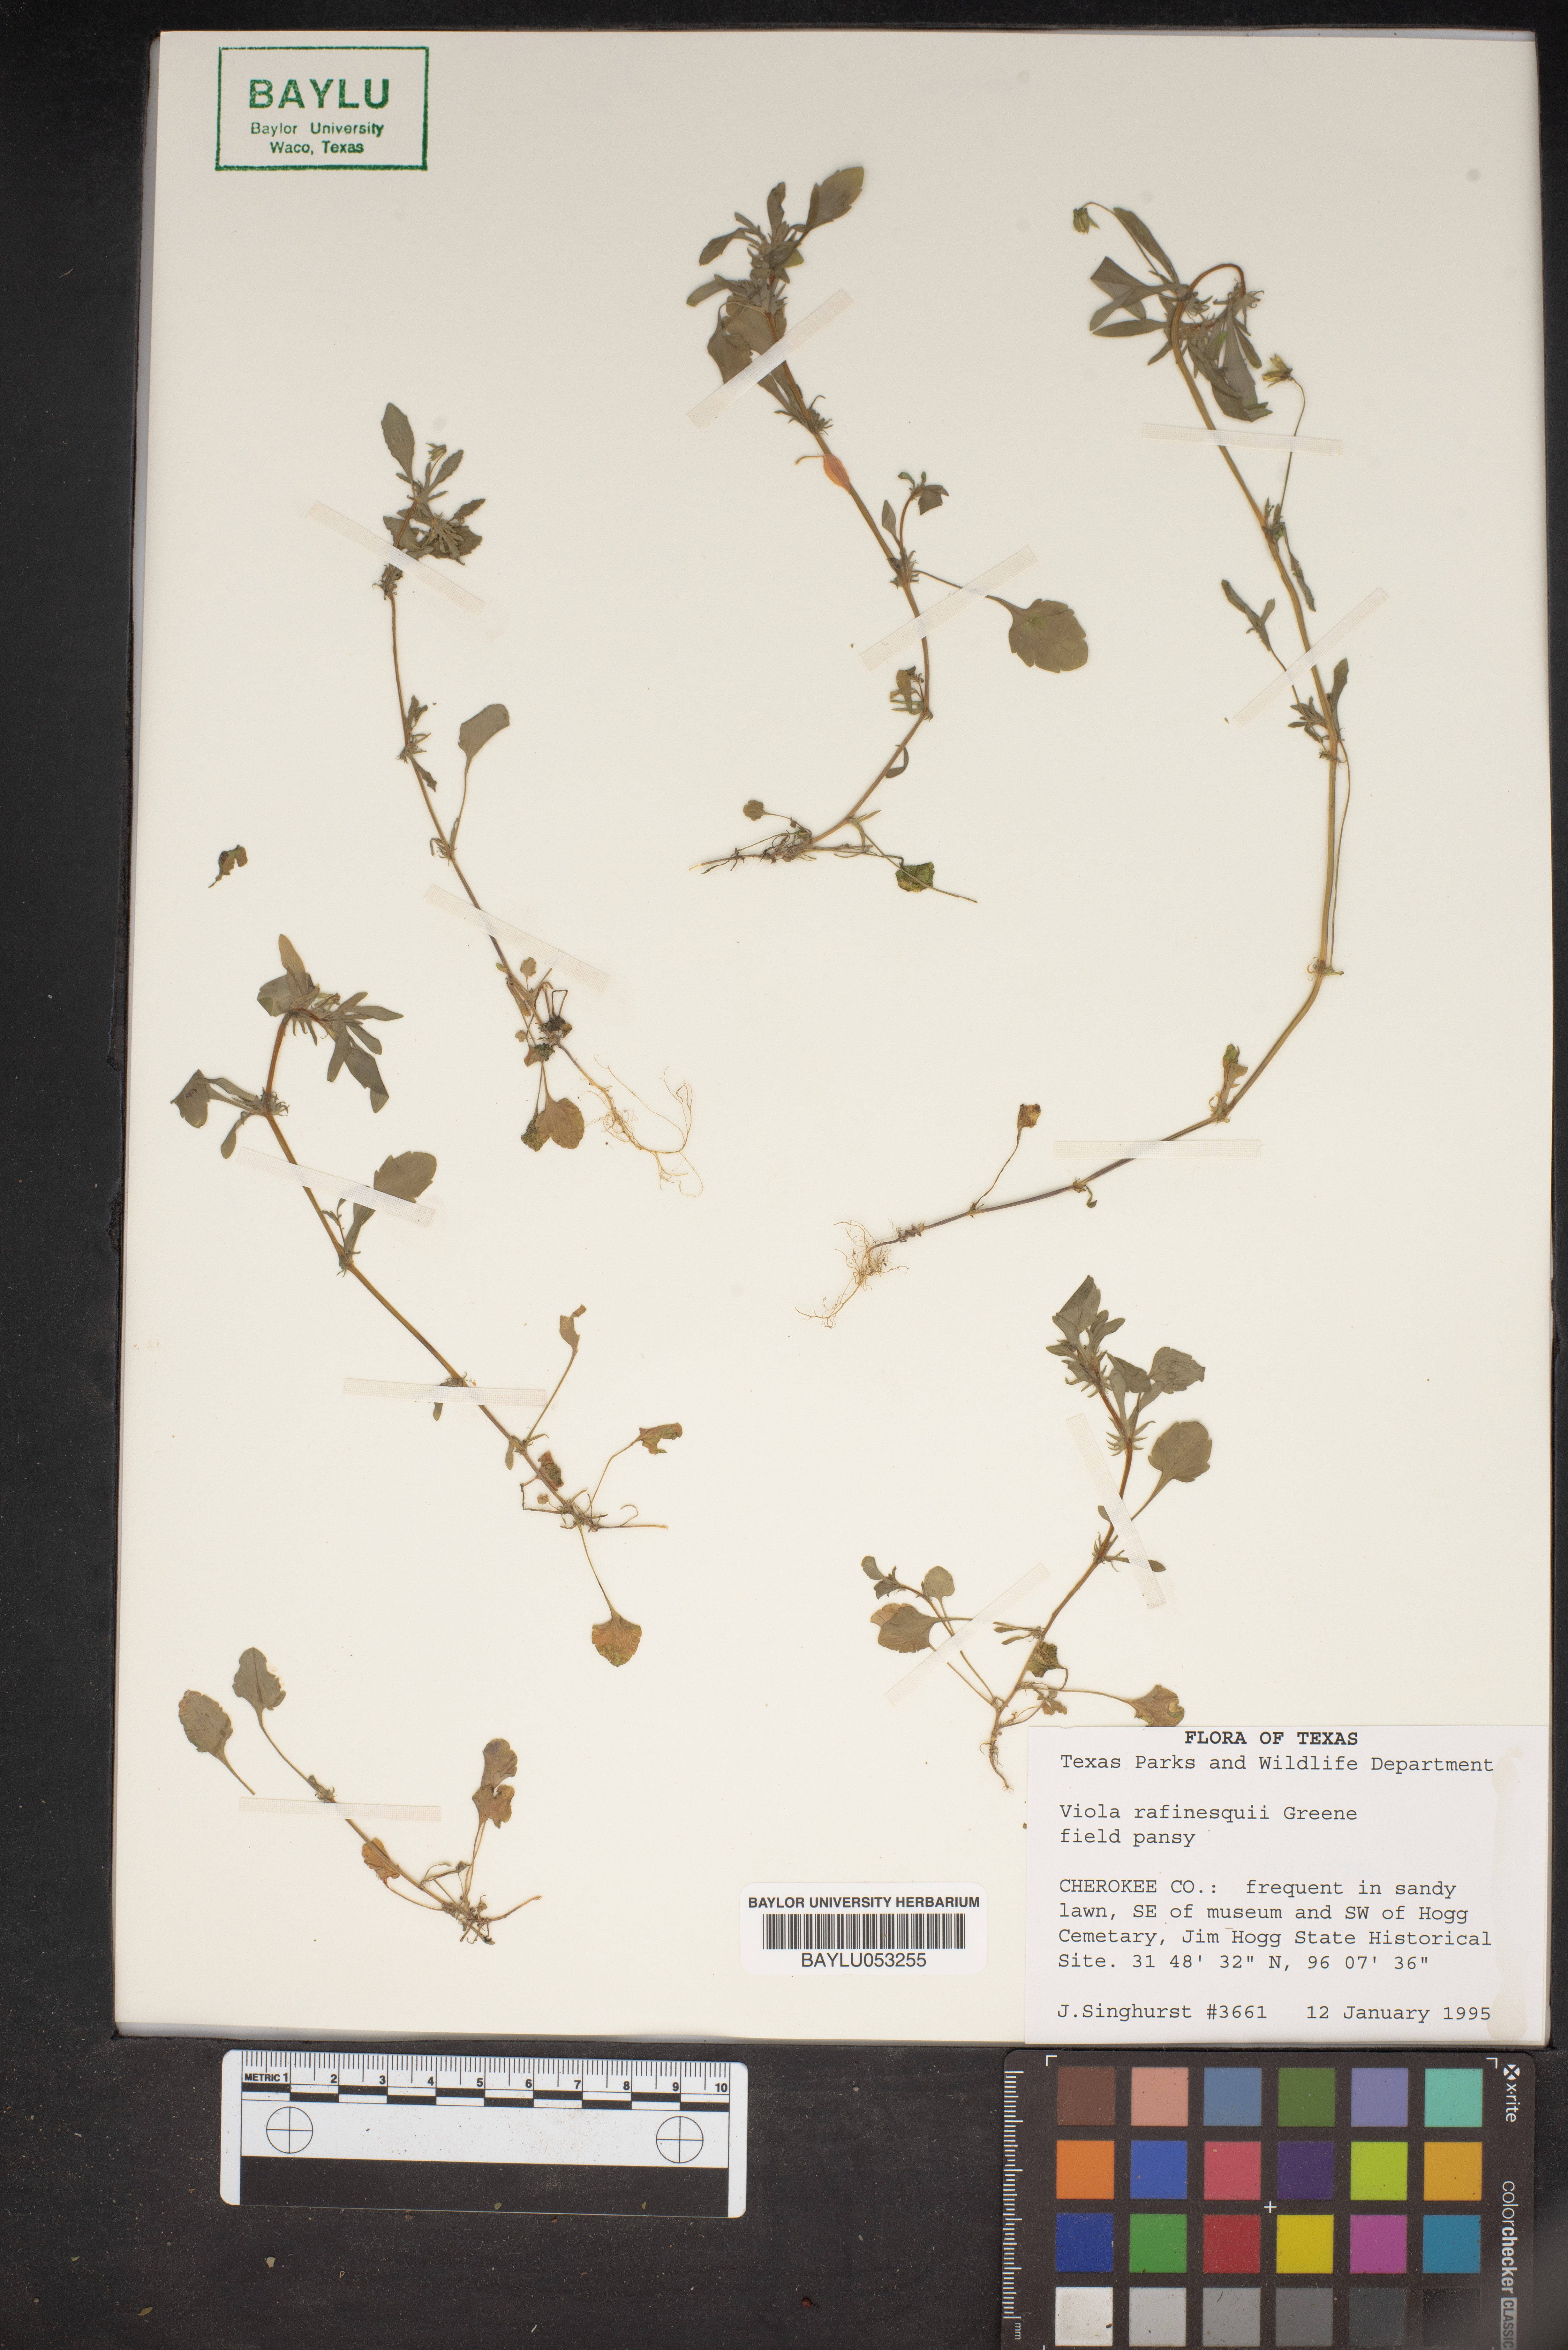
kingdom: Plantae
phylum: Tracheophyta
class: Magnoliopsida
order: Malpighiales
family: Violaceae
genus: Viola
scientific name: Viola rafinesquei
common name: American field pansy
